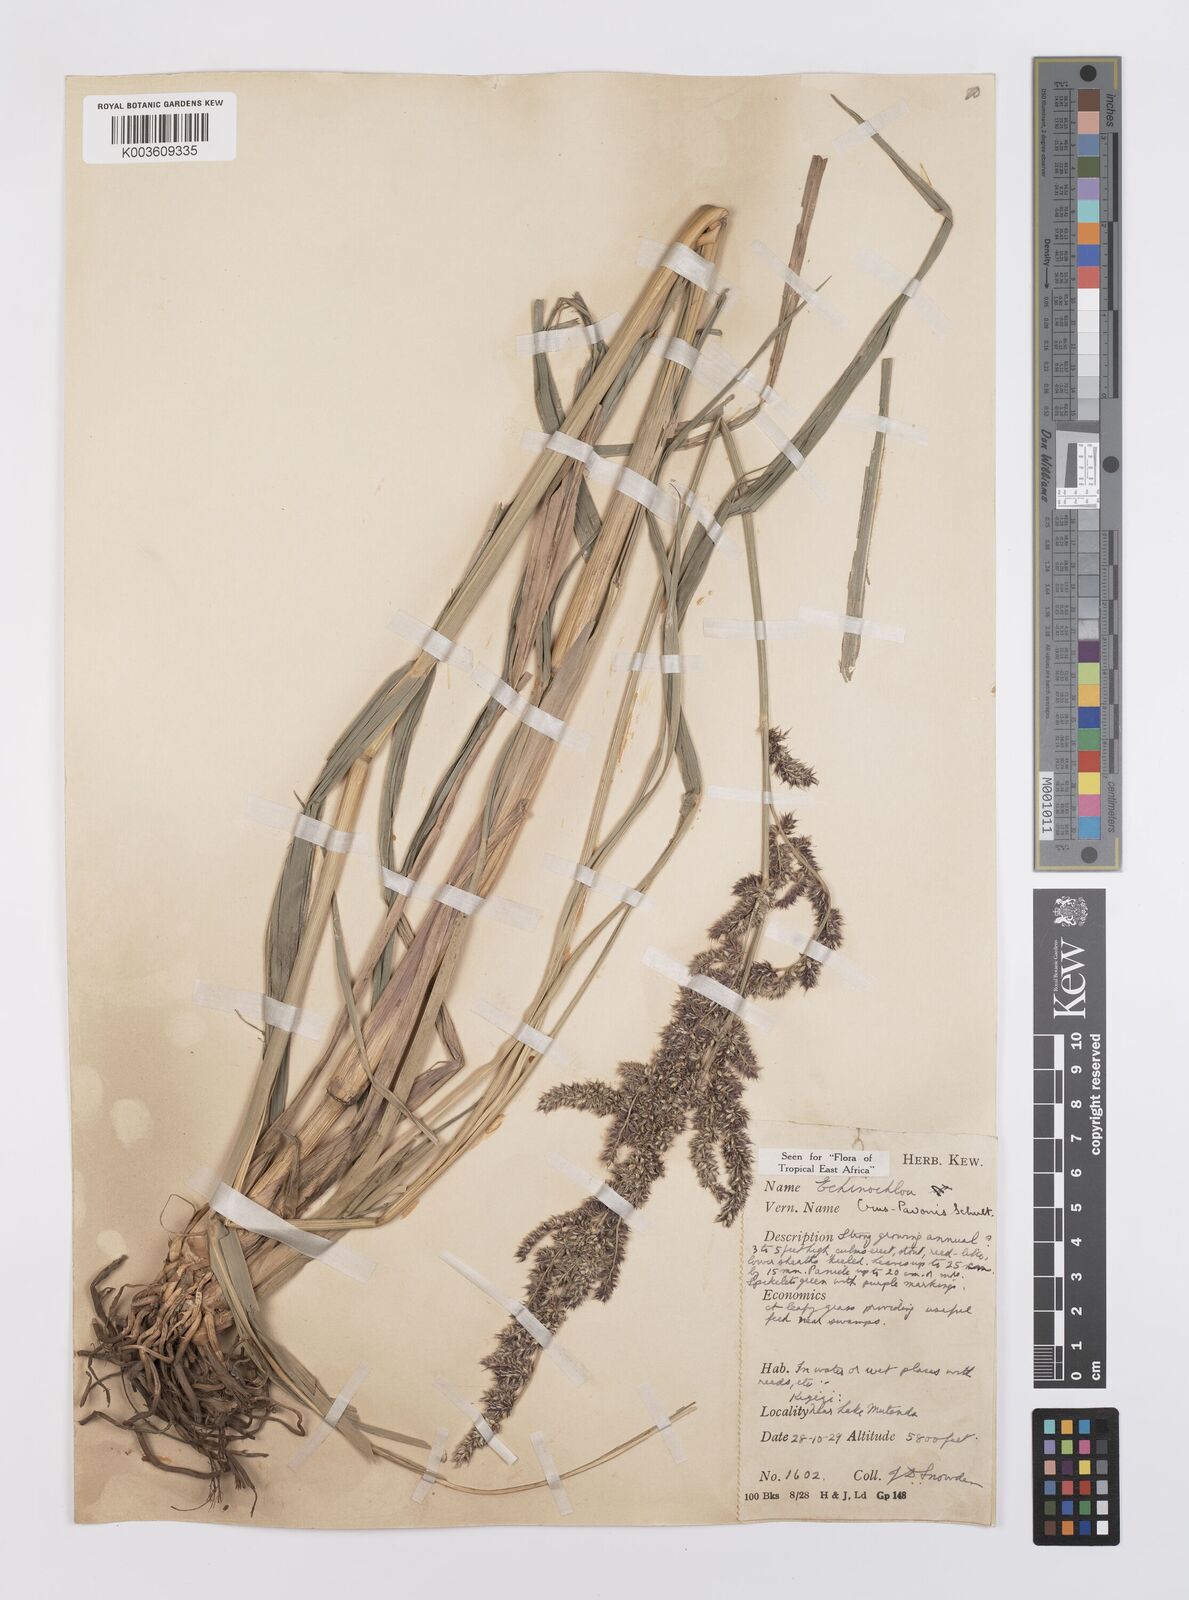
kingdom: Plantae
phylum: Tracheophyta
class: Liliopsida
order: Poales
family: Poaceae
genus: Echinochloa
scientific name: Echinochloa crus-pavonis
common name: Gulf cockspur grass
